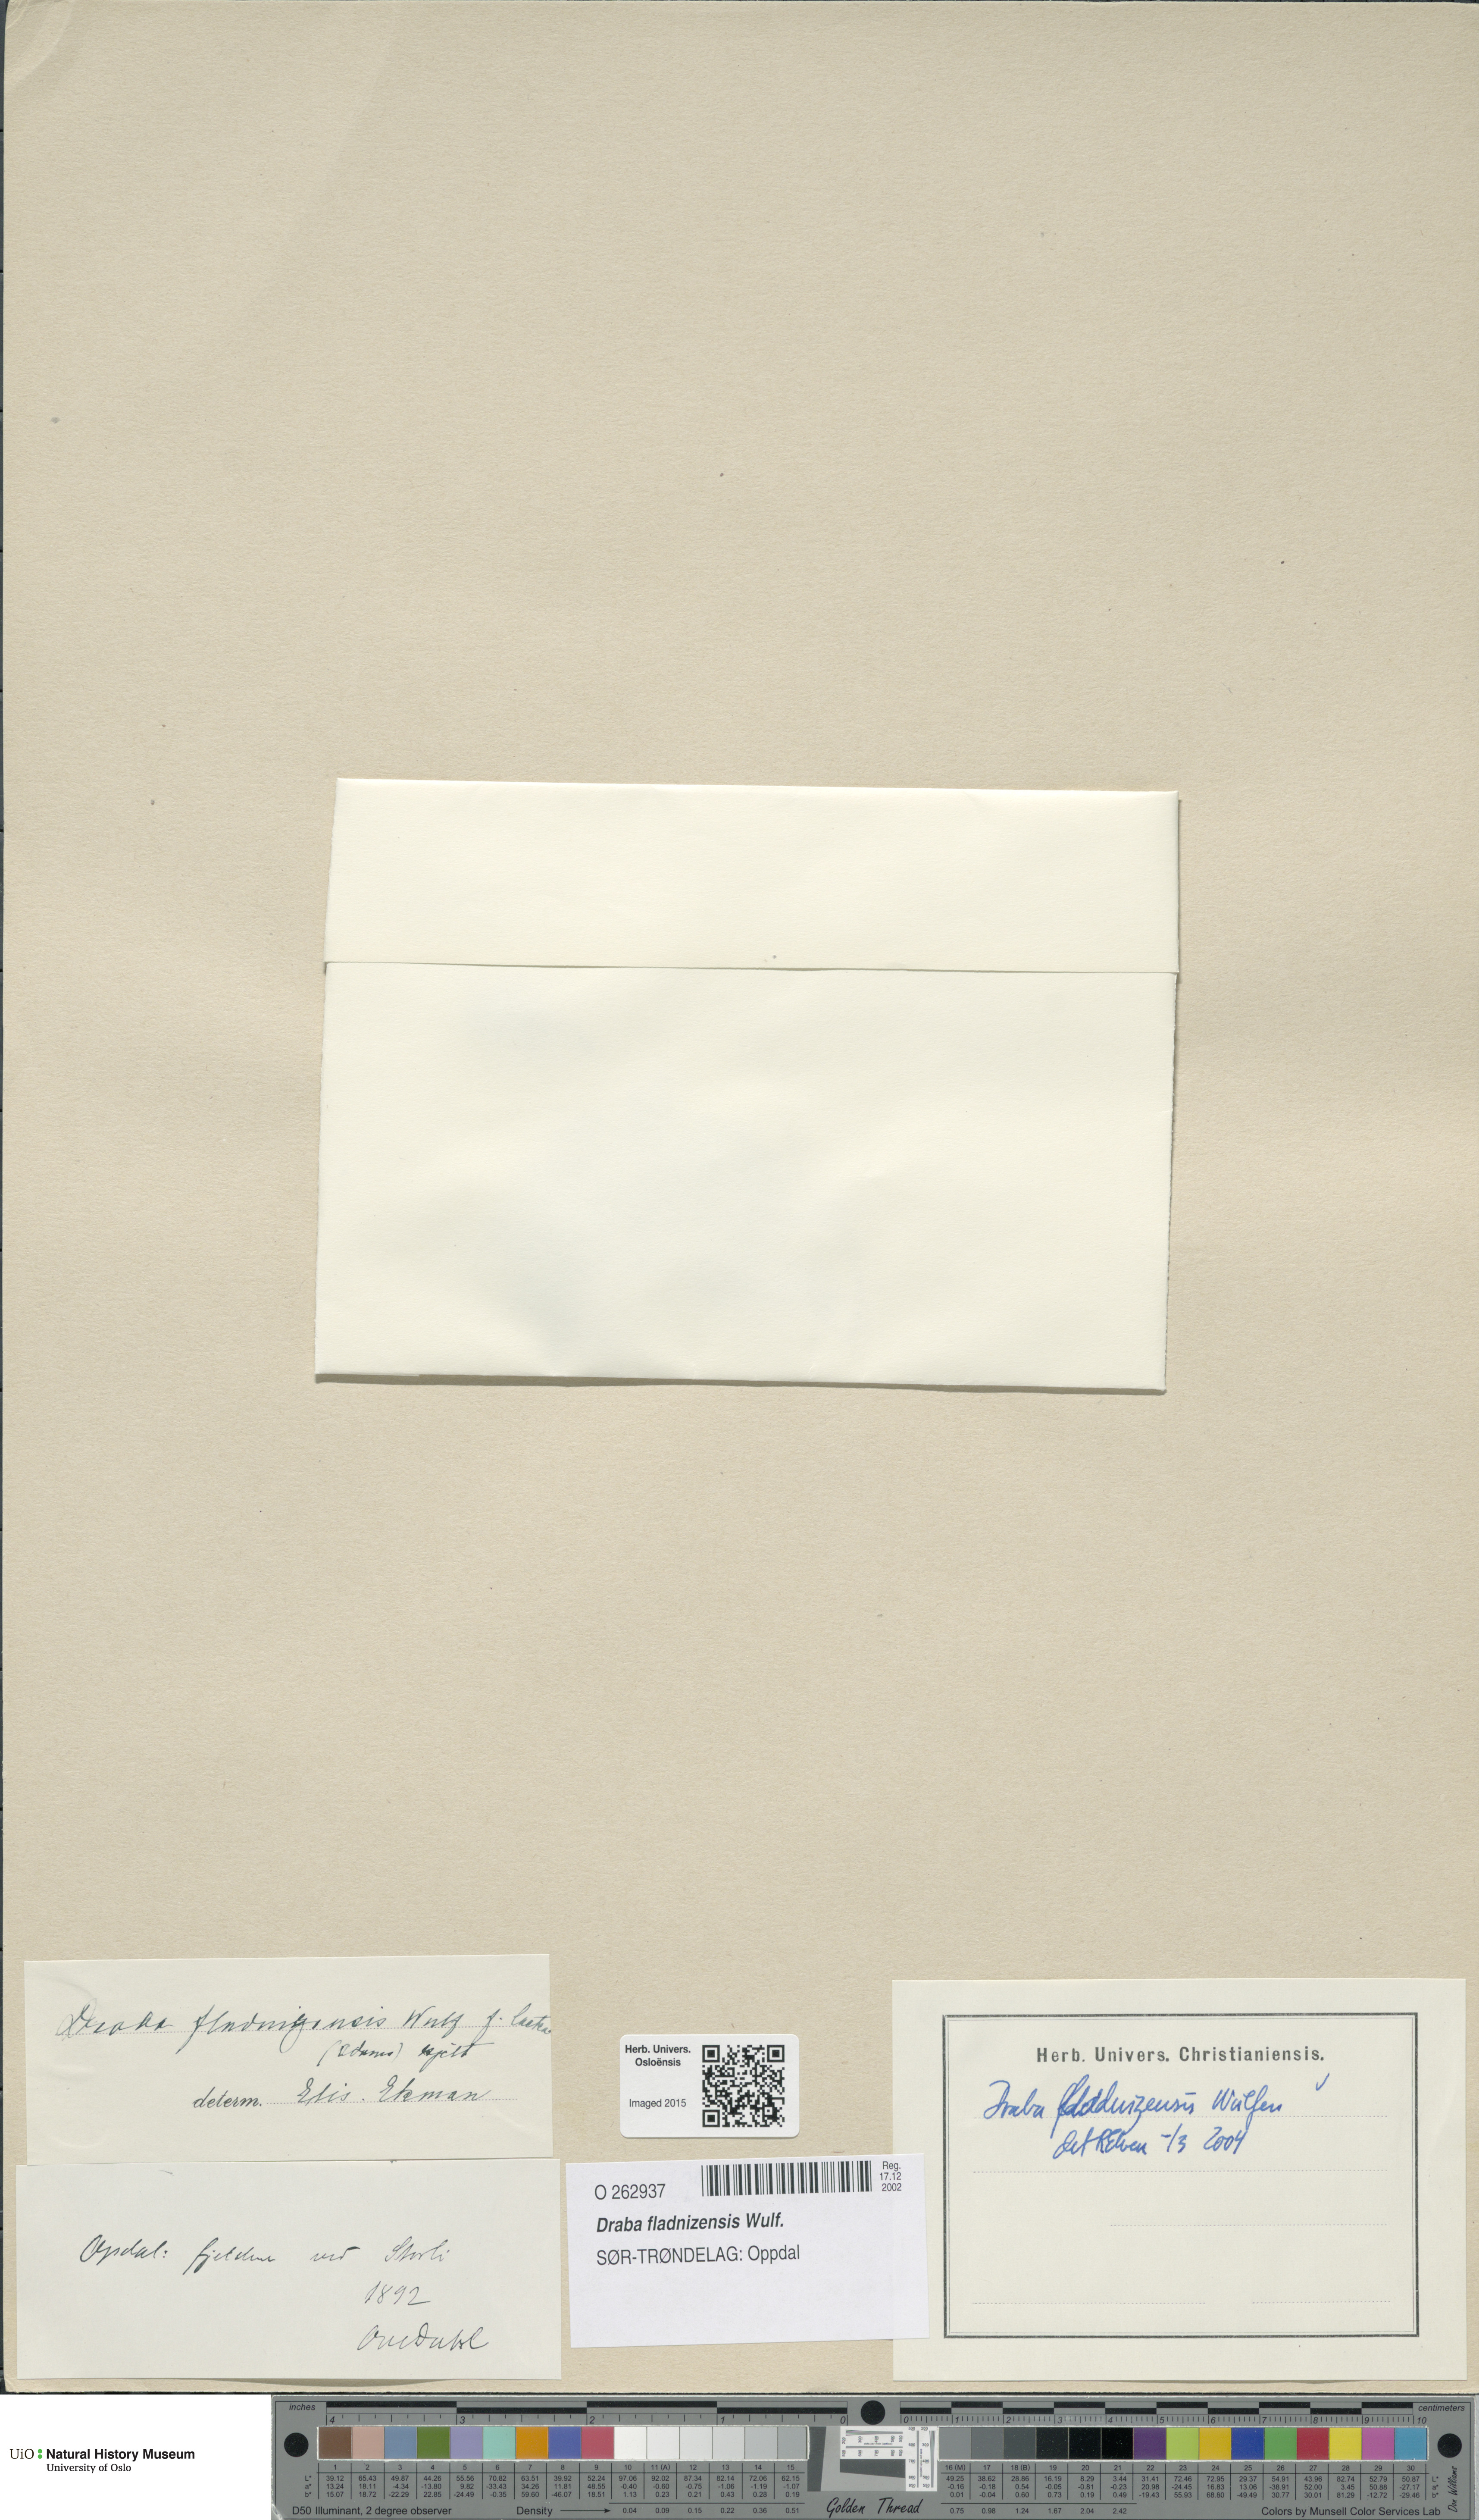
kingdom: Plantae
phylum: Tracheophyta
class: Magnoliopsida
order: Brassicales
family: Brassicaceae
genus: Draba
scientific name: Draba fladnizensis
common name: Austrian draba
